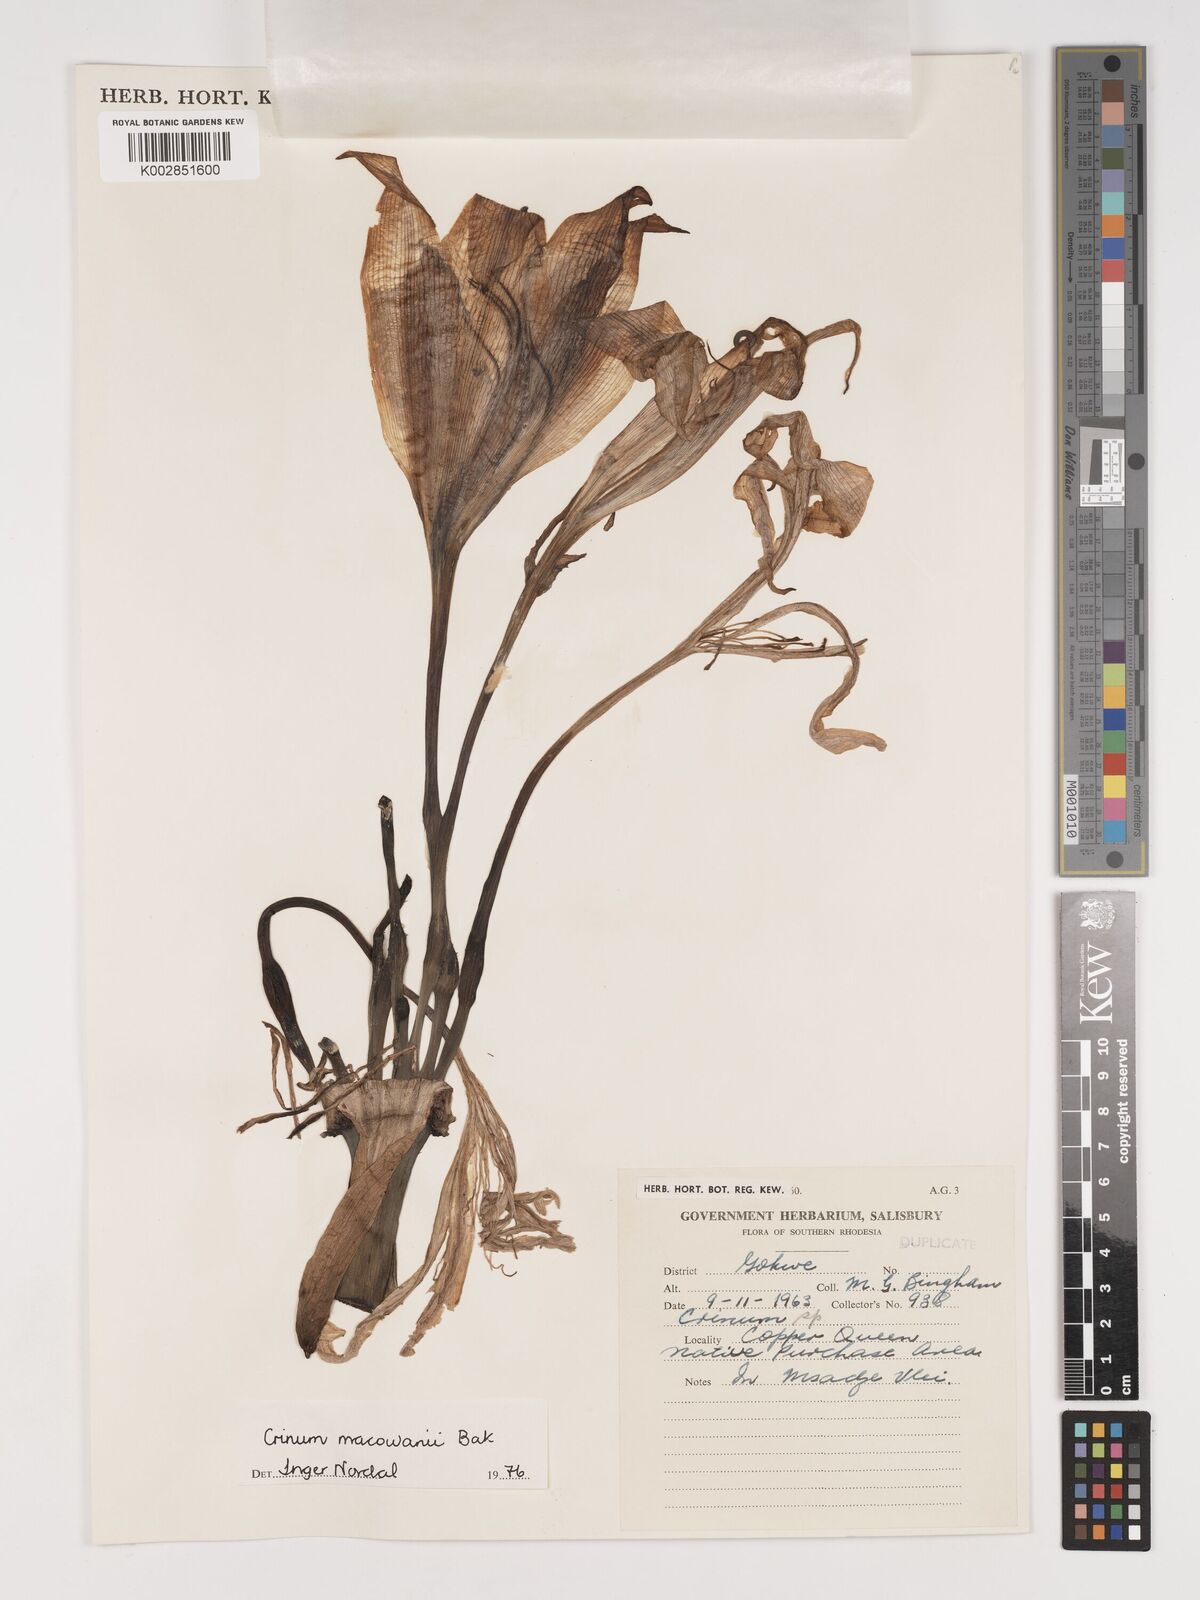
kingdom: Plantae
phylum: Tracheophyta
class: Liliopsida
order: Asparagales
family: Amaryllidaceae
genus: Crinum
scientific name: Crinum macowanii
